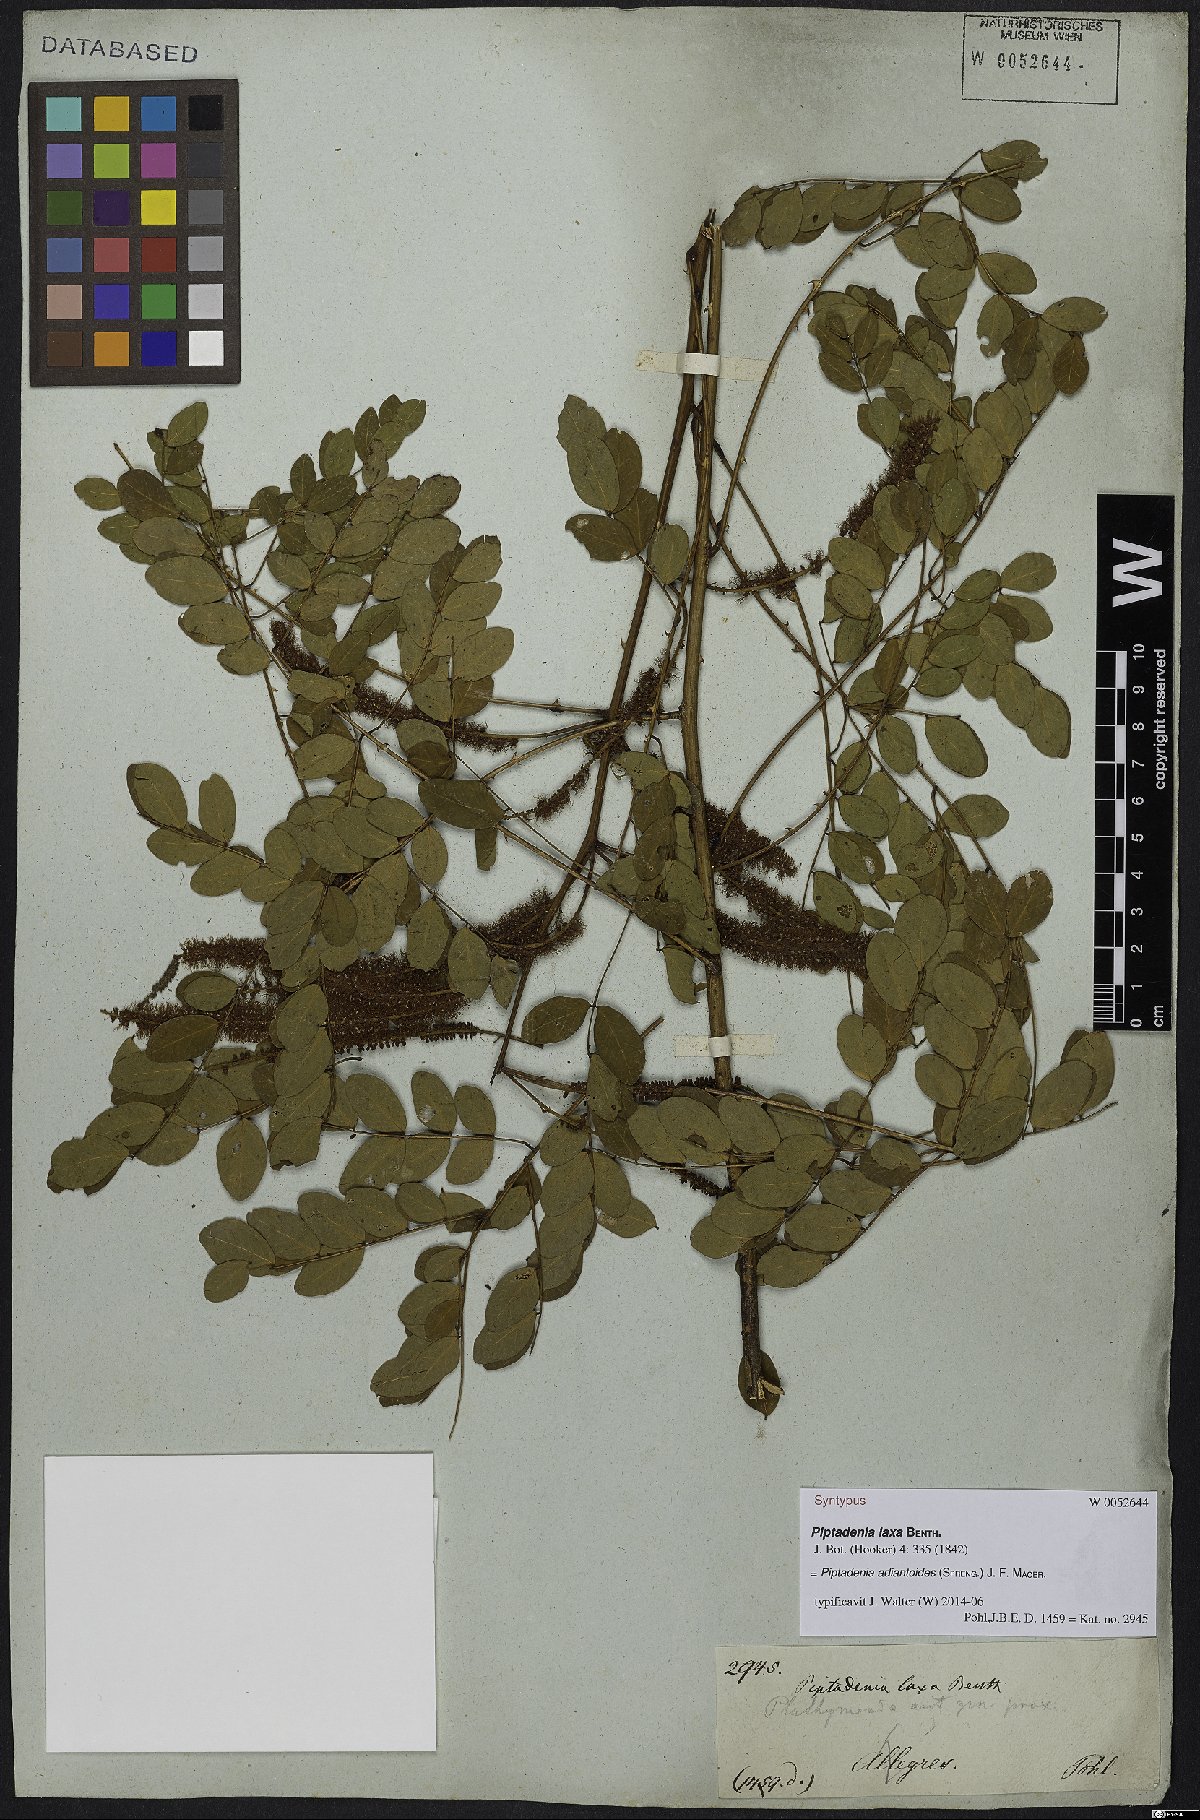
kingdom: Plantae
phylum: Tracheophyta
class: Magnoliopsida
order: Fabales
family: Fabaceae
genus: Piptadenia
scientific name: Piptadenia adiantoides
